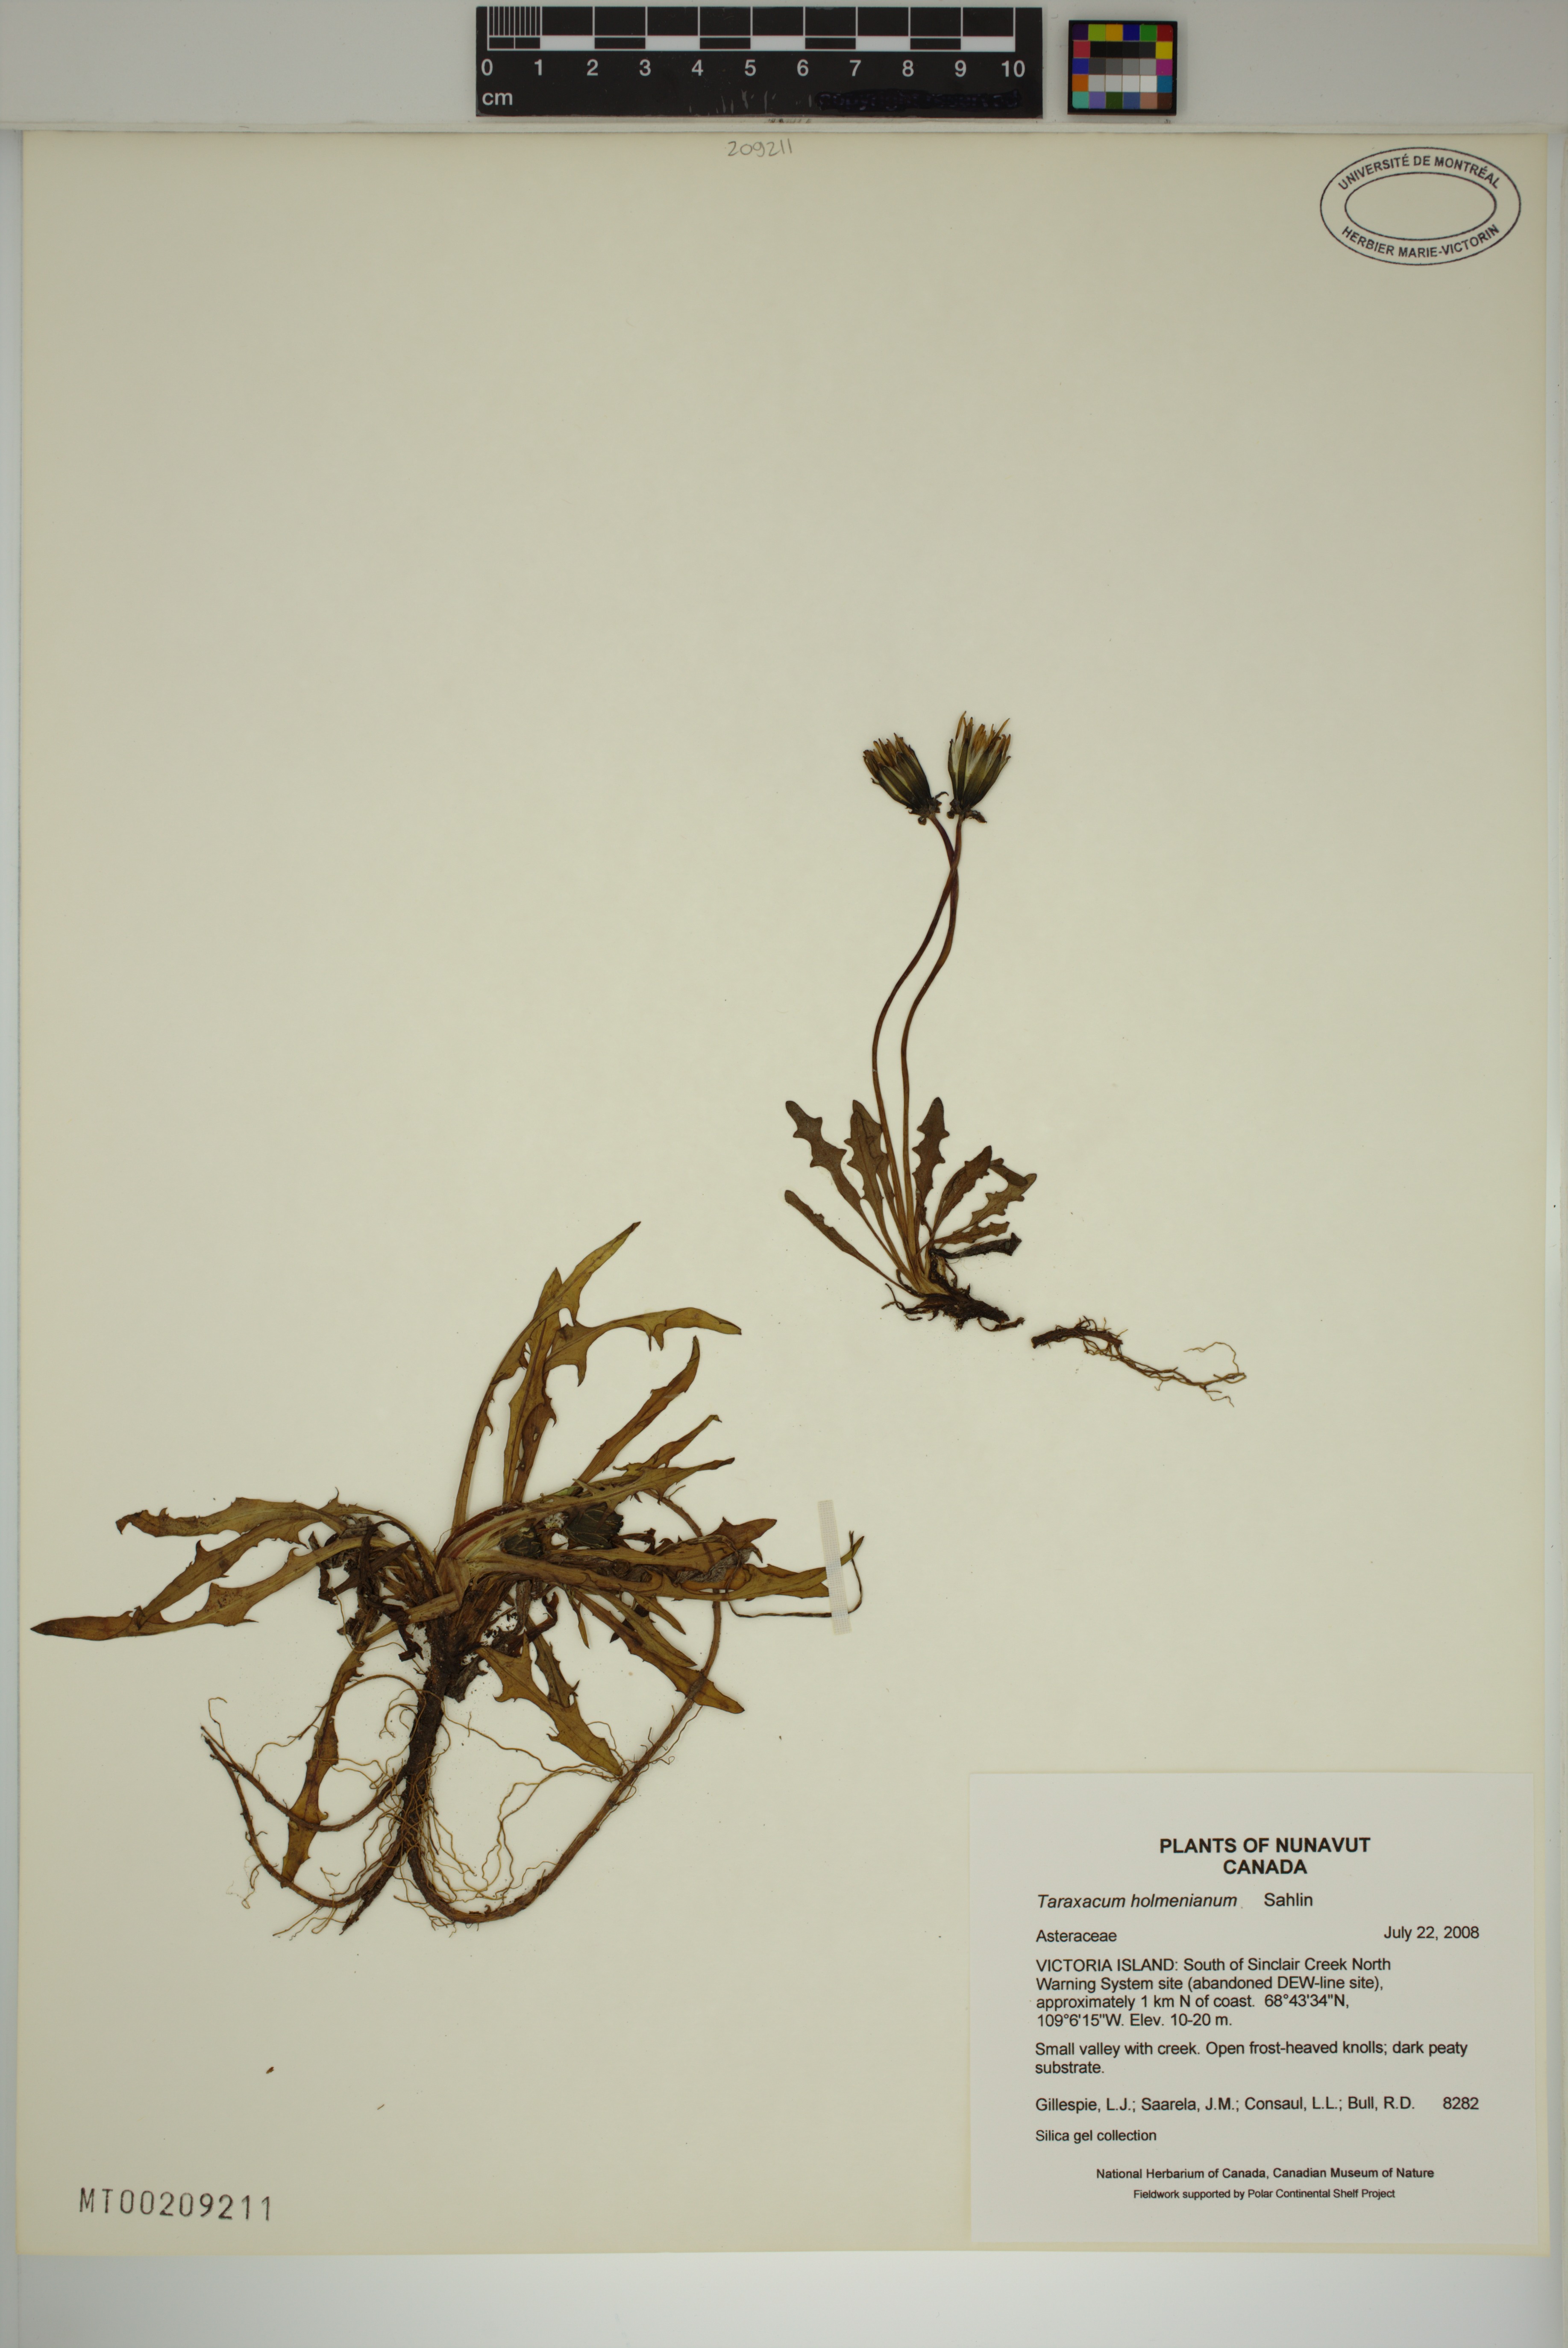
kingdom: Plantae
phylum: Tracheophyta
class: Magnoliopsida
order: Asterales
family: Asteraceae
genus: Taraxacum
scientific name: Taraxacum holmenianum
